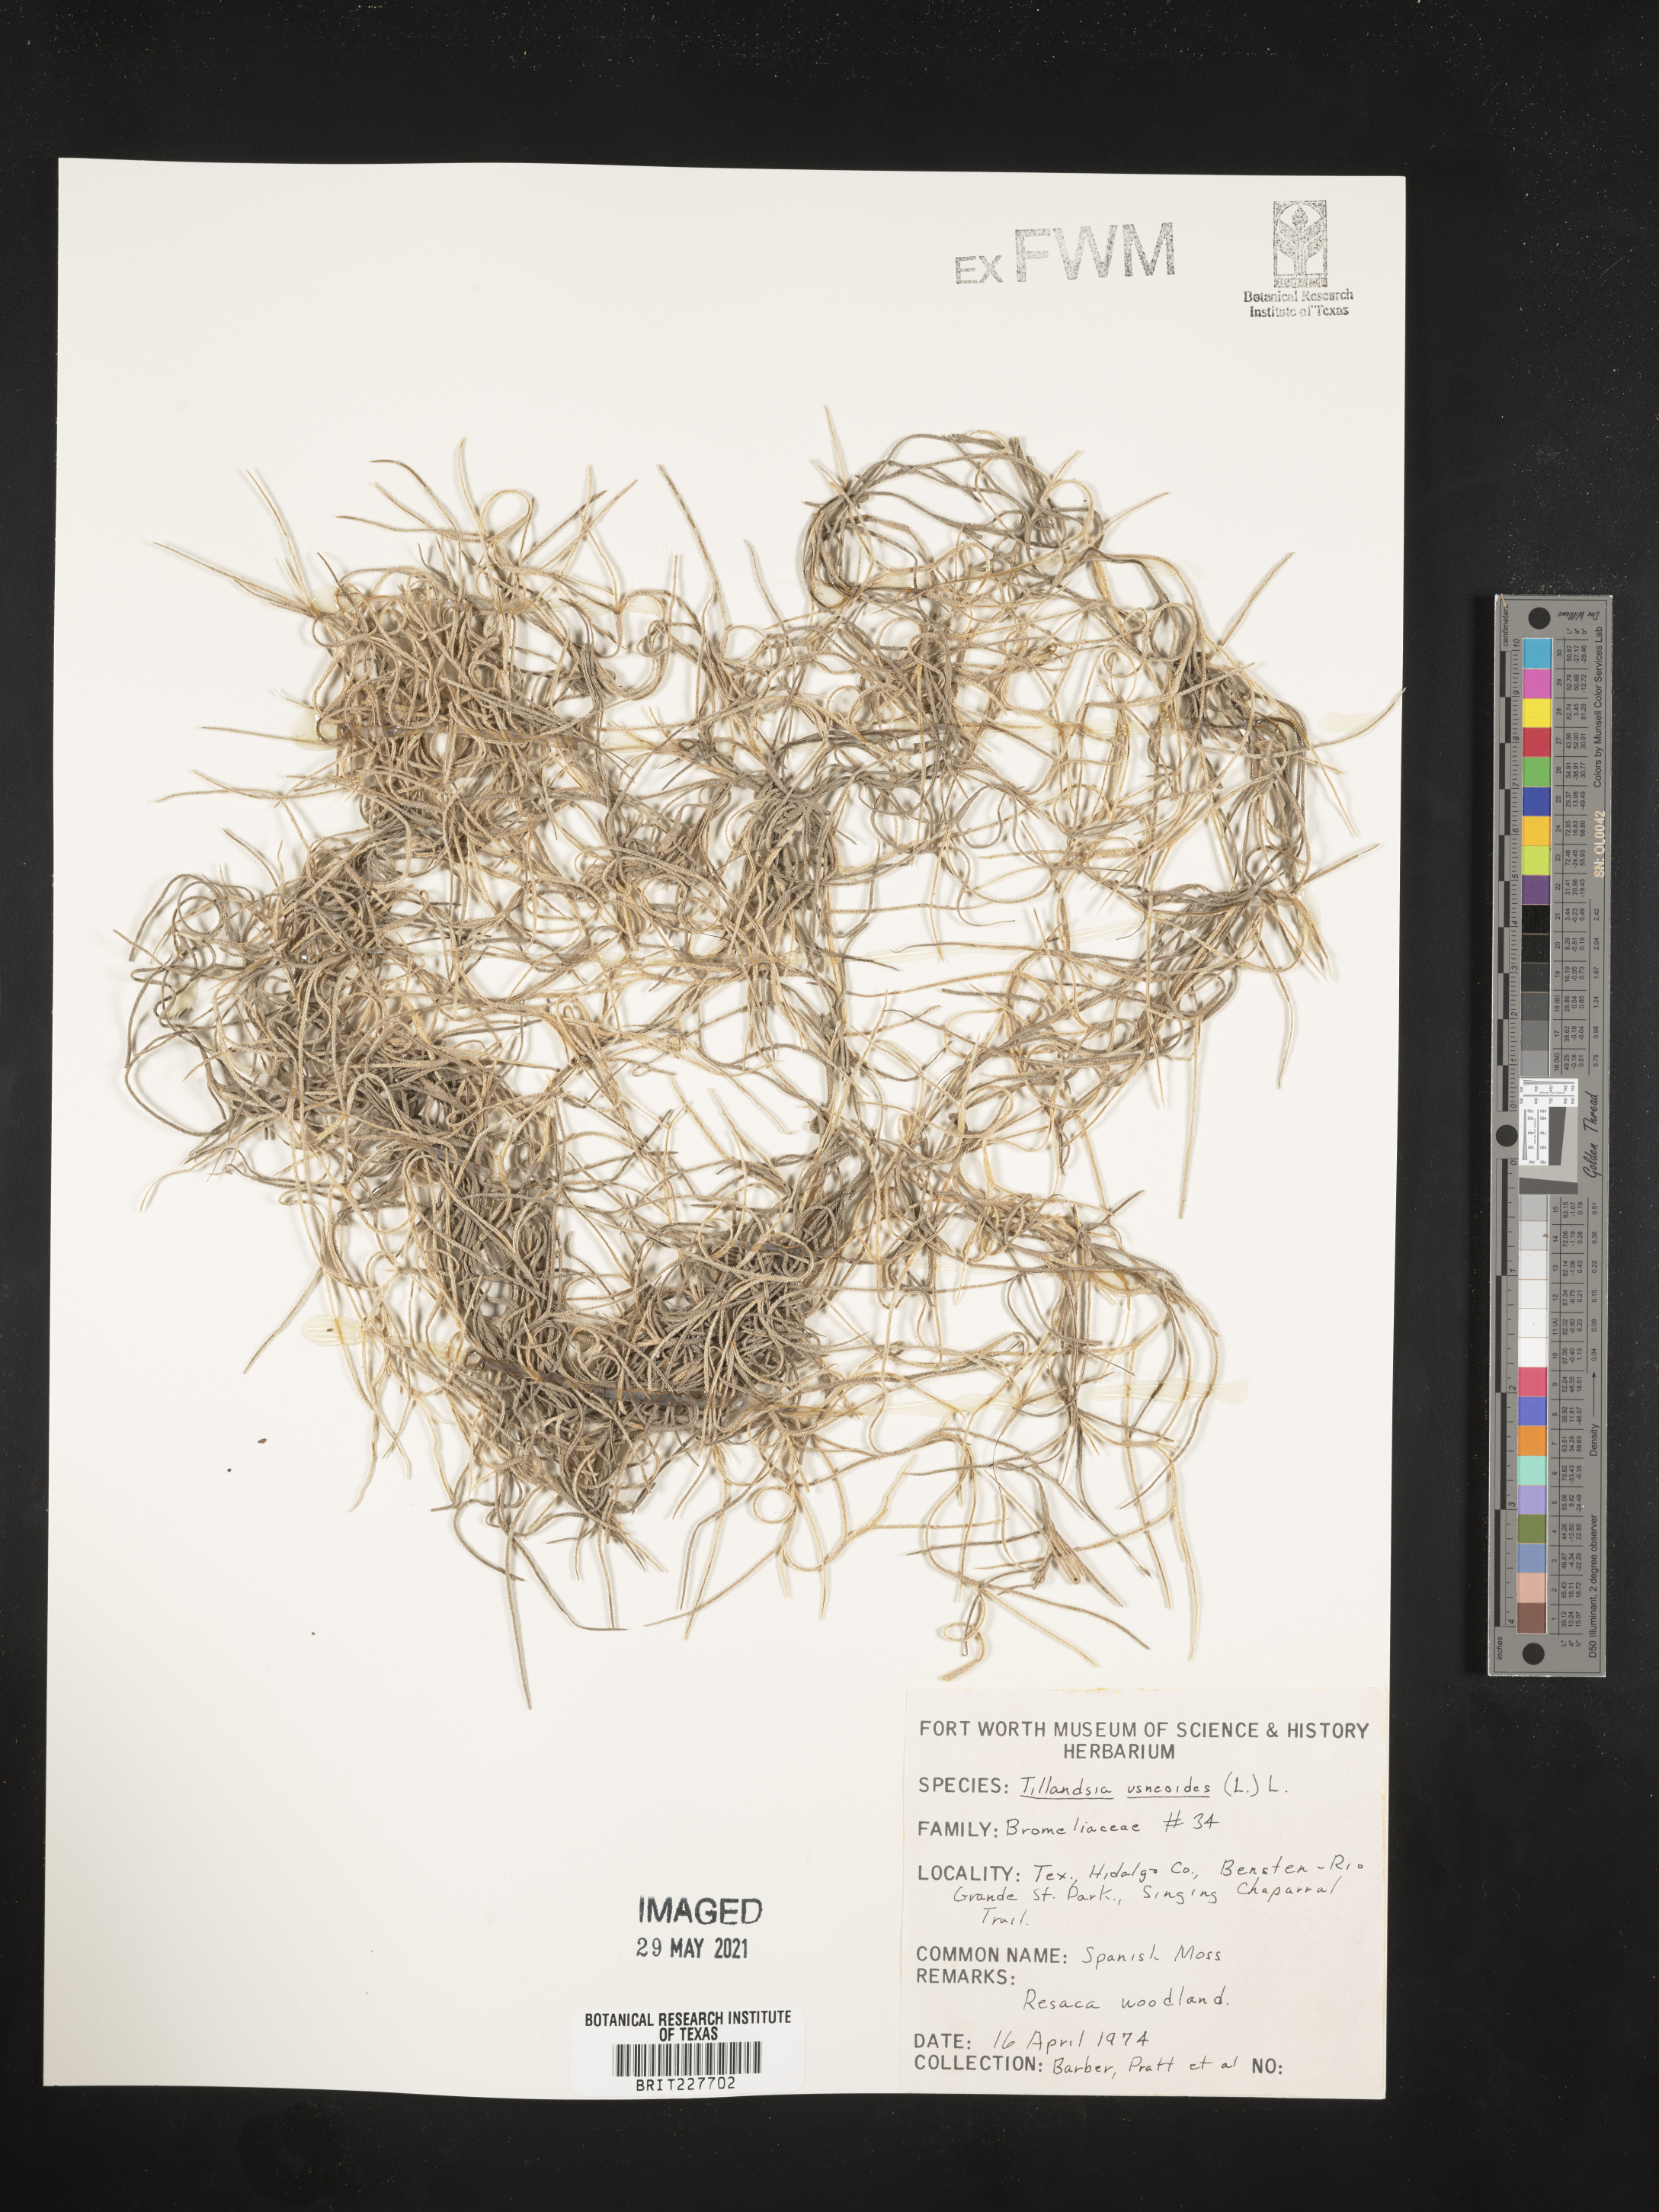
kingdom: Plantae
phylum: Tracheophyta
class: Liliopsida
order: Poales
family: Bromeliaceae
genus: Tillandsia
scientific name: Tillandsia usneoides
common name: Spanish moss
